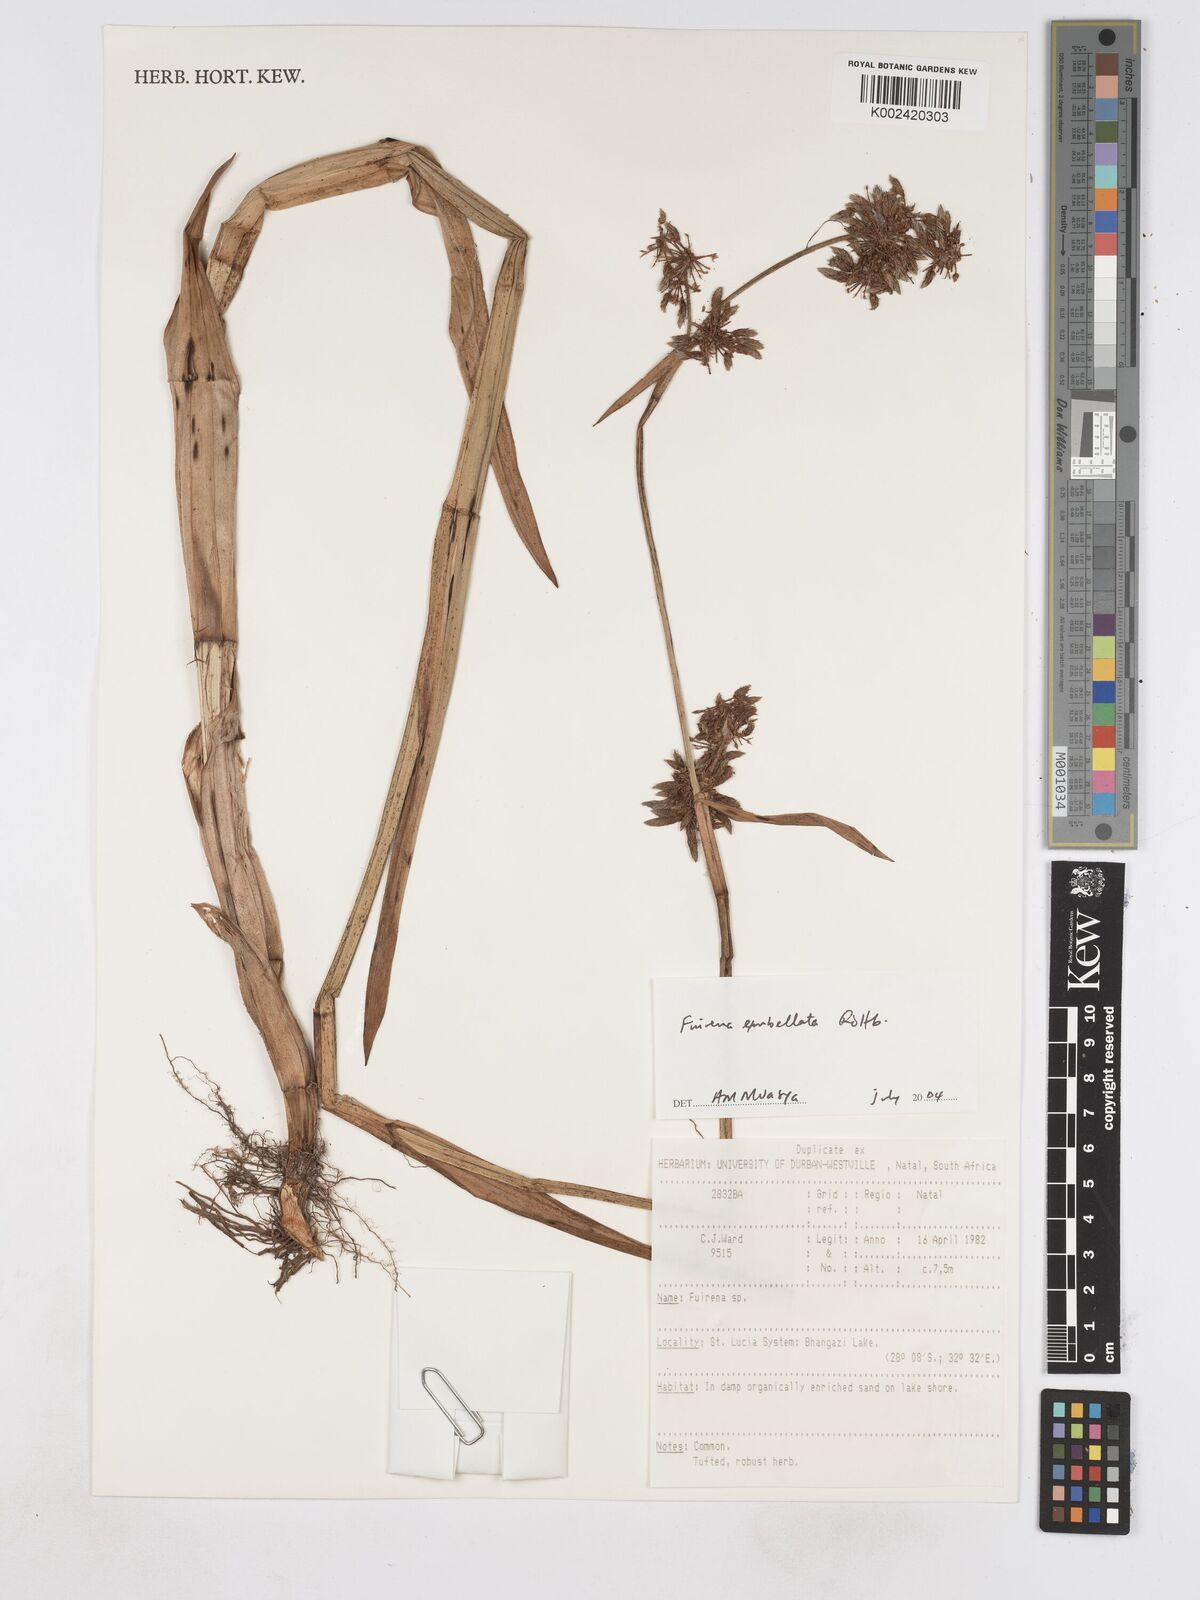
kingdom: Plantae
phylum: Tracheophyta
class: Liliopsida
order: Poales
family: Cyperaceae
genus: Fuirena
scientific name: Fuirena umbellata
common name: Yefen
